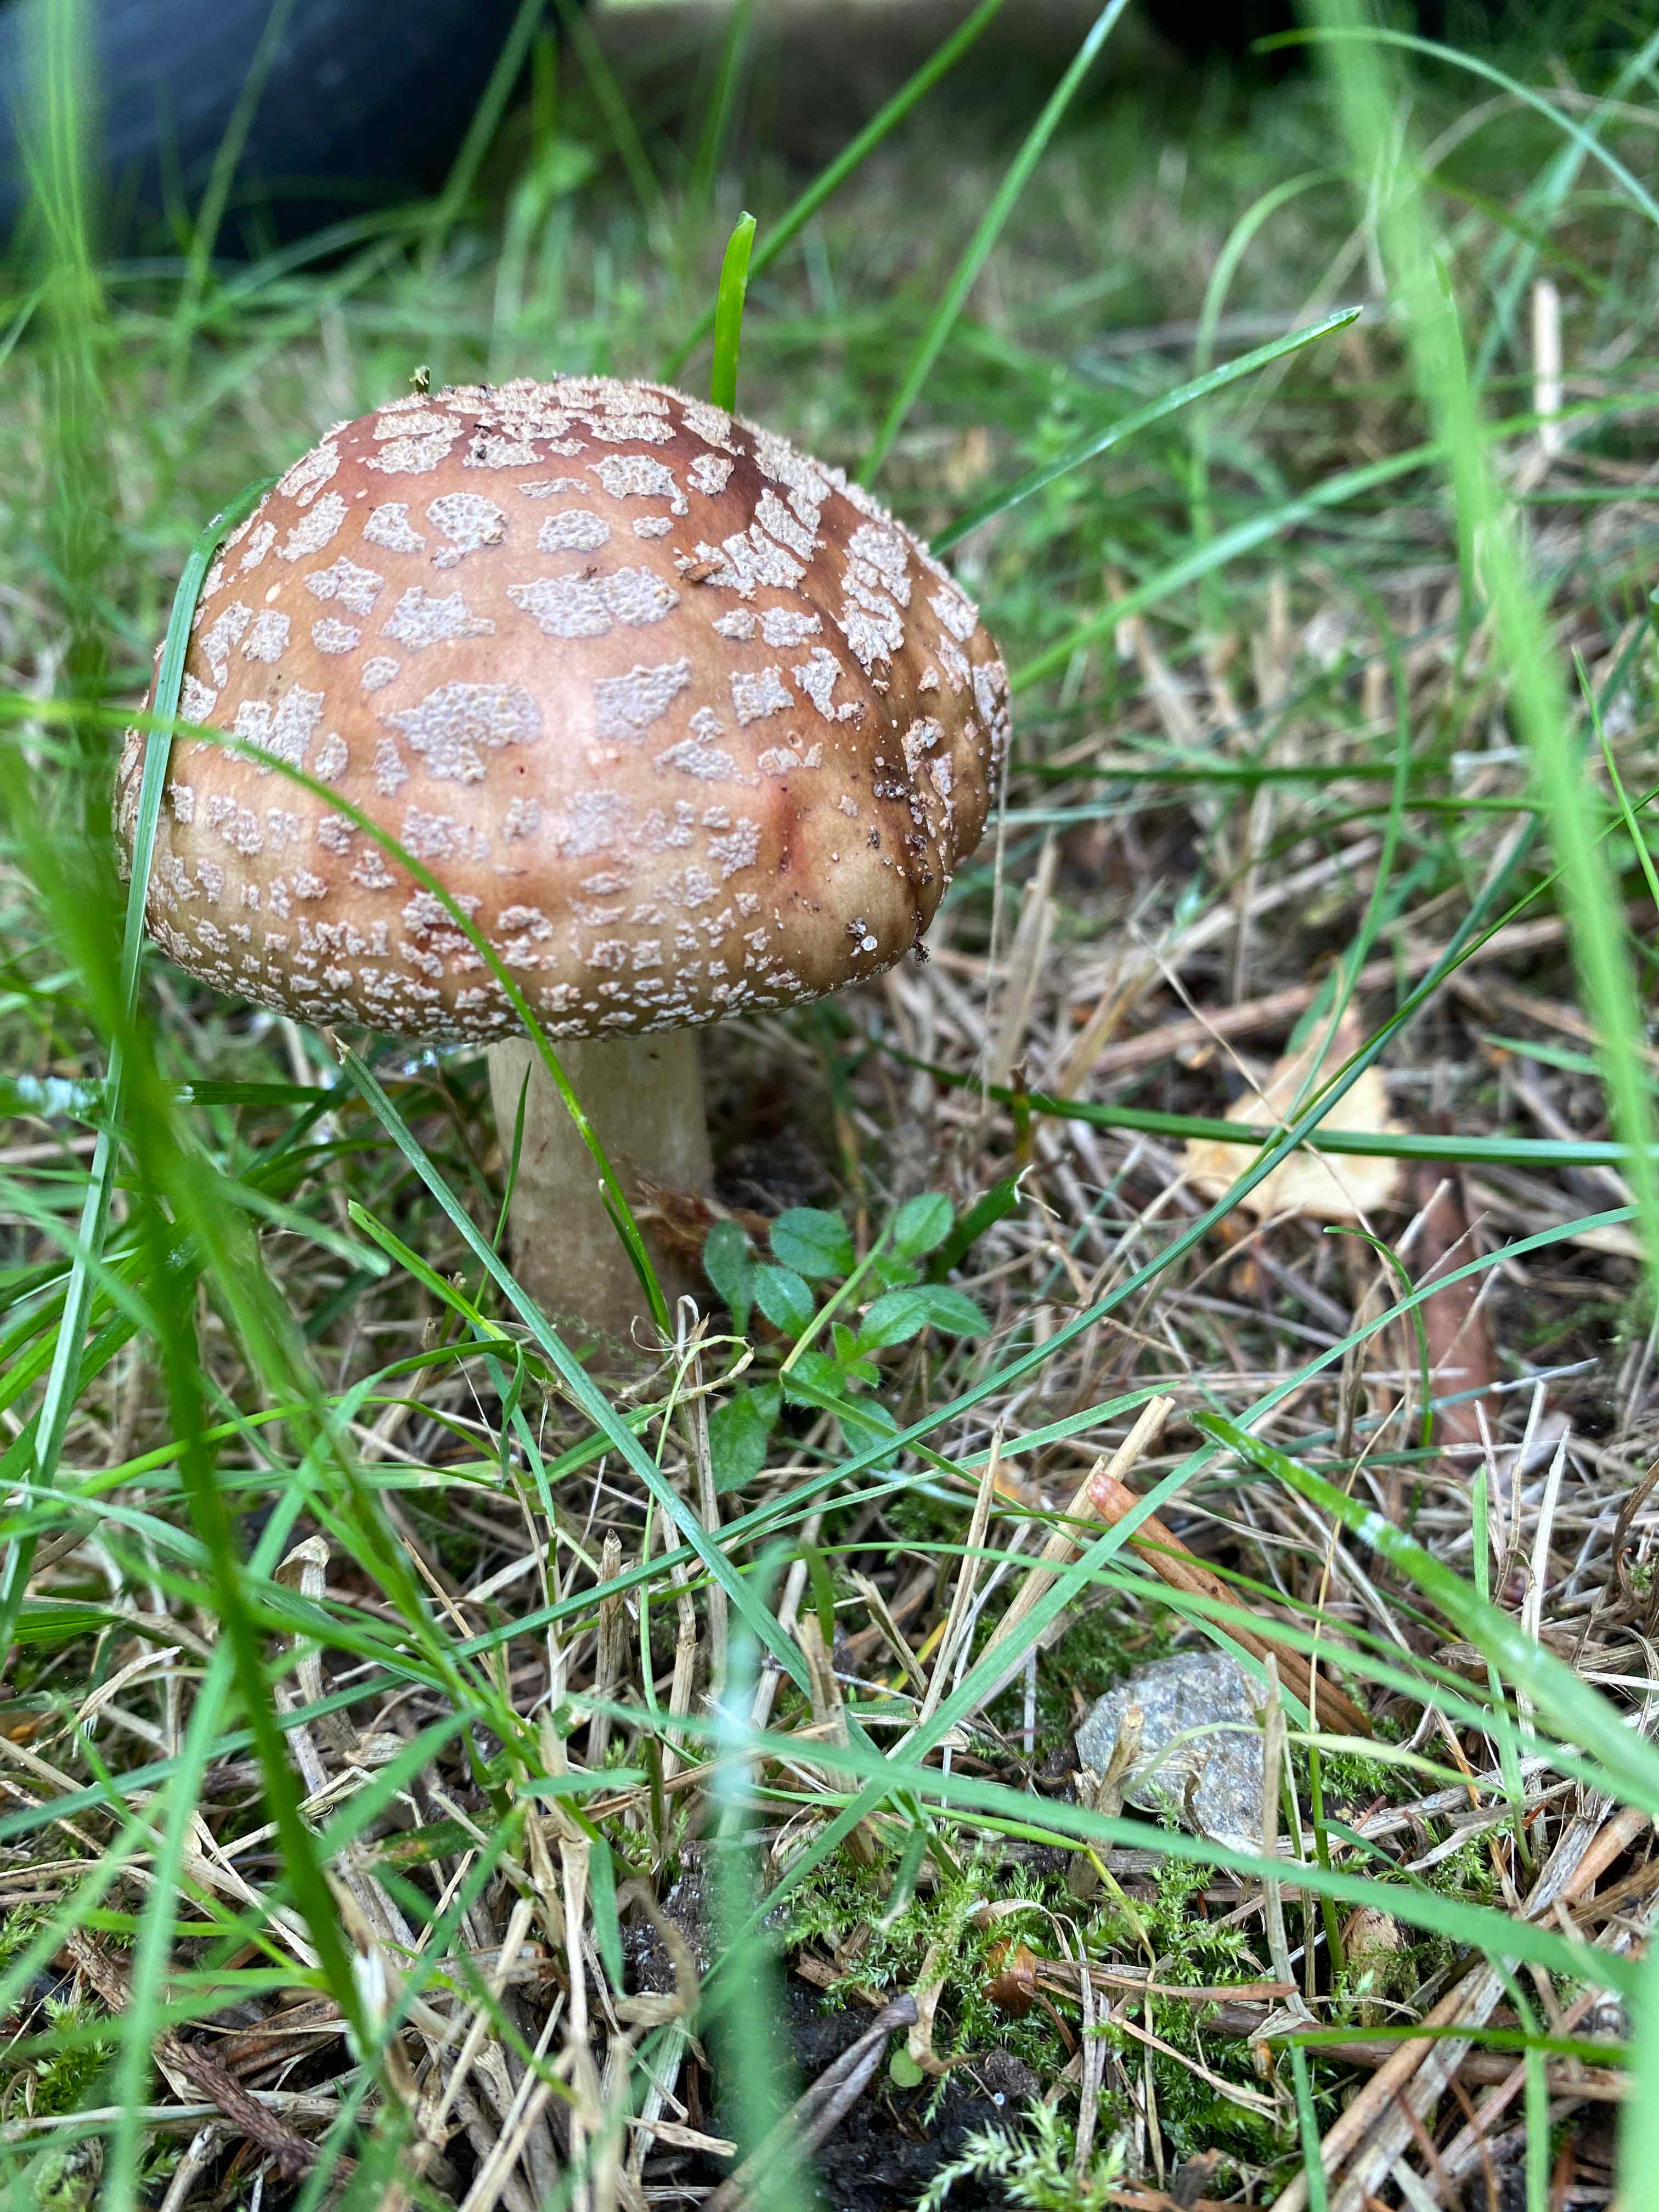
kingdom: Fungi
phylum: Basidiomycota
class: Agaricomycetes
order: Agaricales
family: Amanitaceae
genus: Amanita
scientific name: Amanita rubescens
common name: rødmende fluesvamp
